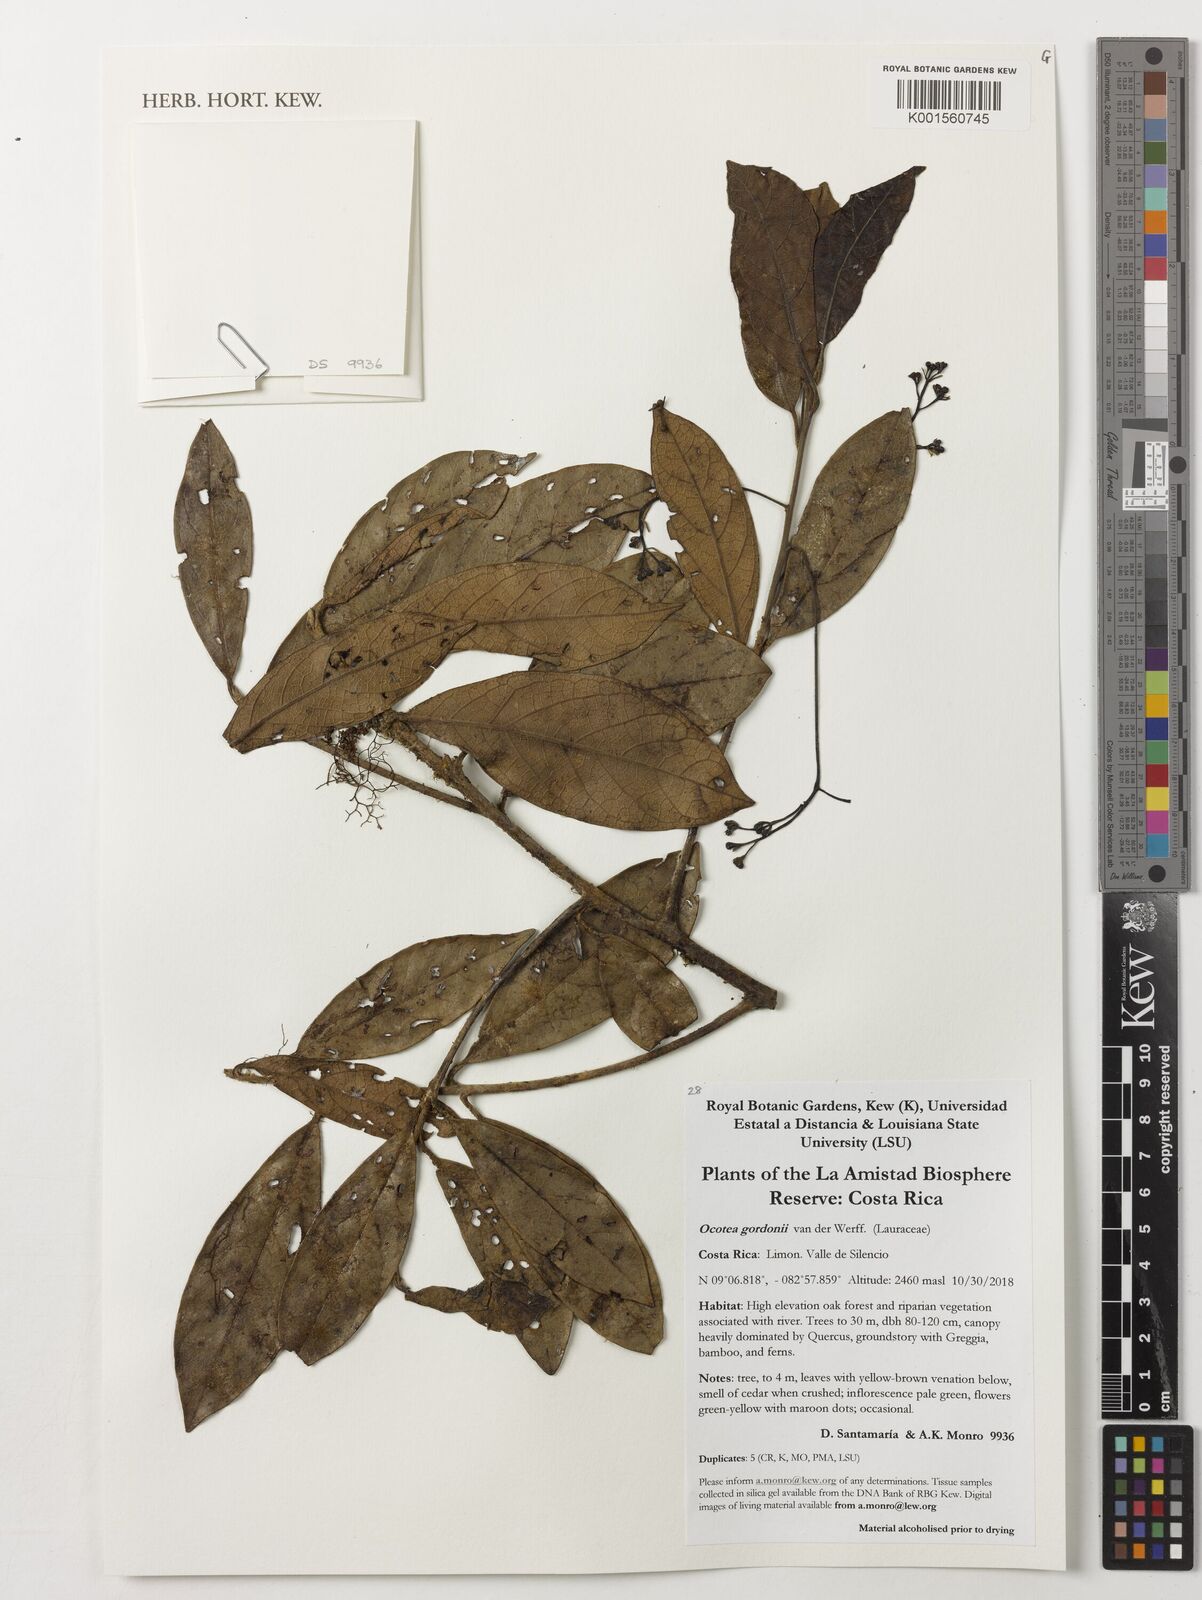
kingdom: Plantae
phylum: Tracheophyta
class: Magnoliopsida
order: Laurales
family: Lauraceae
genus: Ocotea
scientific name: Ocotea gordonii
